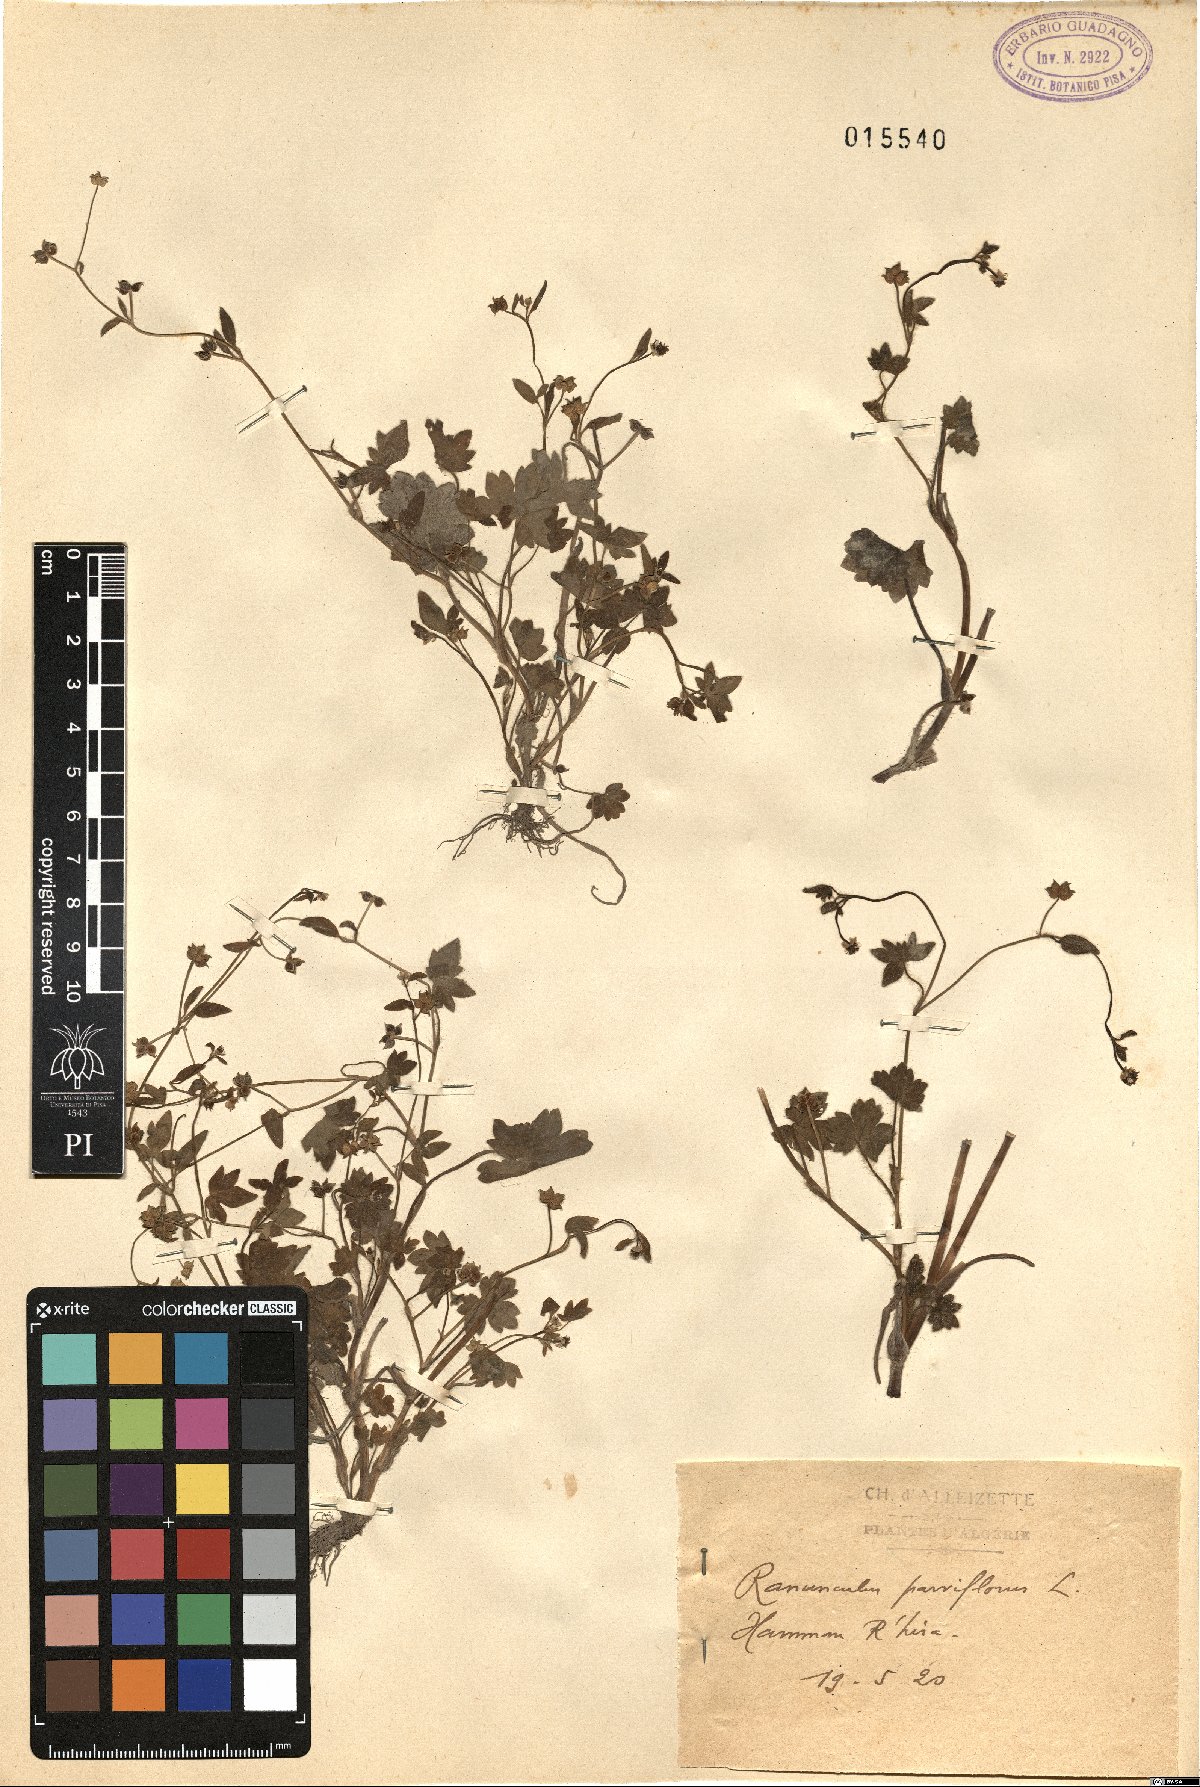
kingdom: Plantae
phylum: Tracheophyta
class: Magnoliopsida
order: Ranunculales
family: Ranunculaceae
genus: Ranunculus
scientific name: Ranunculus parviflorus
